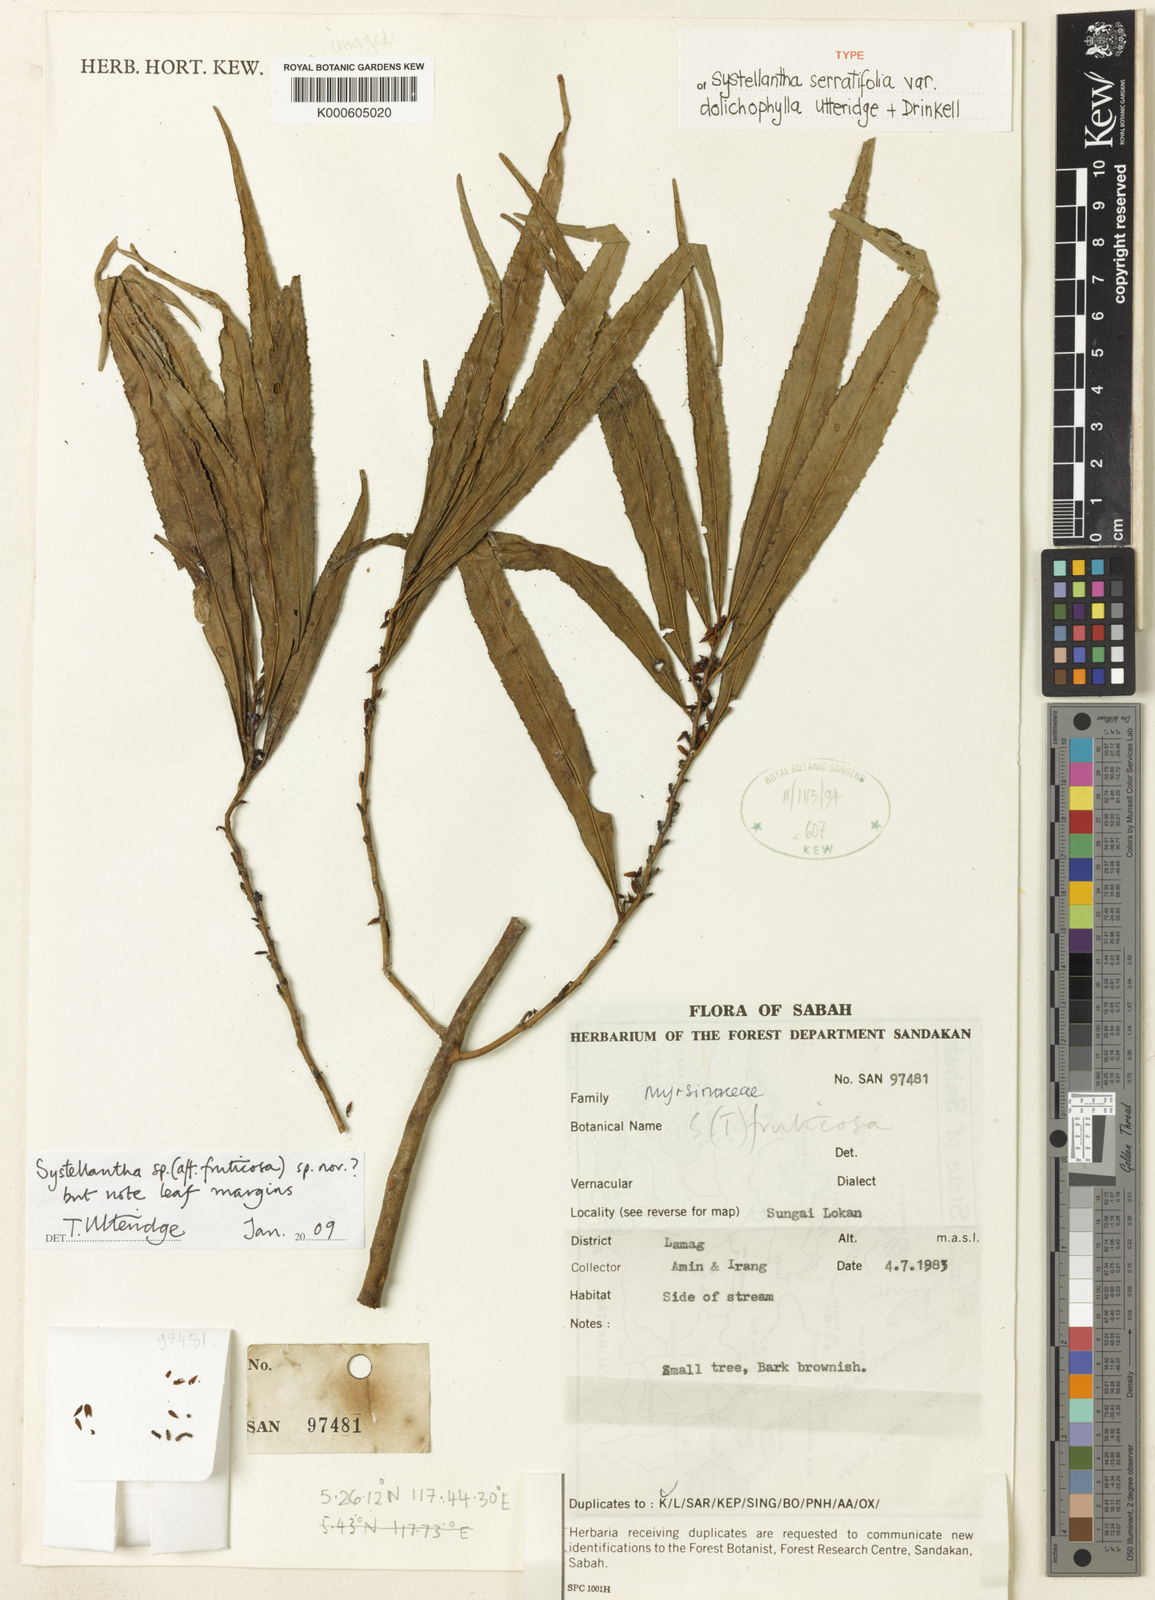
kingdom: Plantae
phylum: Tracheophyta
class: Magnoliopsida
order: Ericales
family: Primulaceae
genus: Systellantha
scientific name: Systellantha
